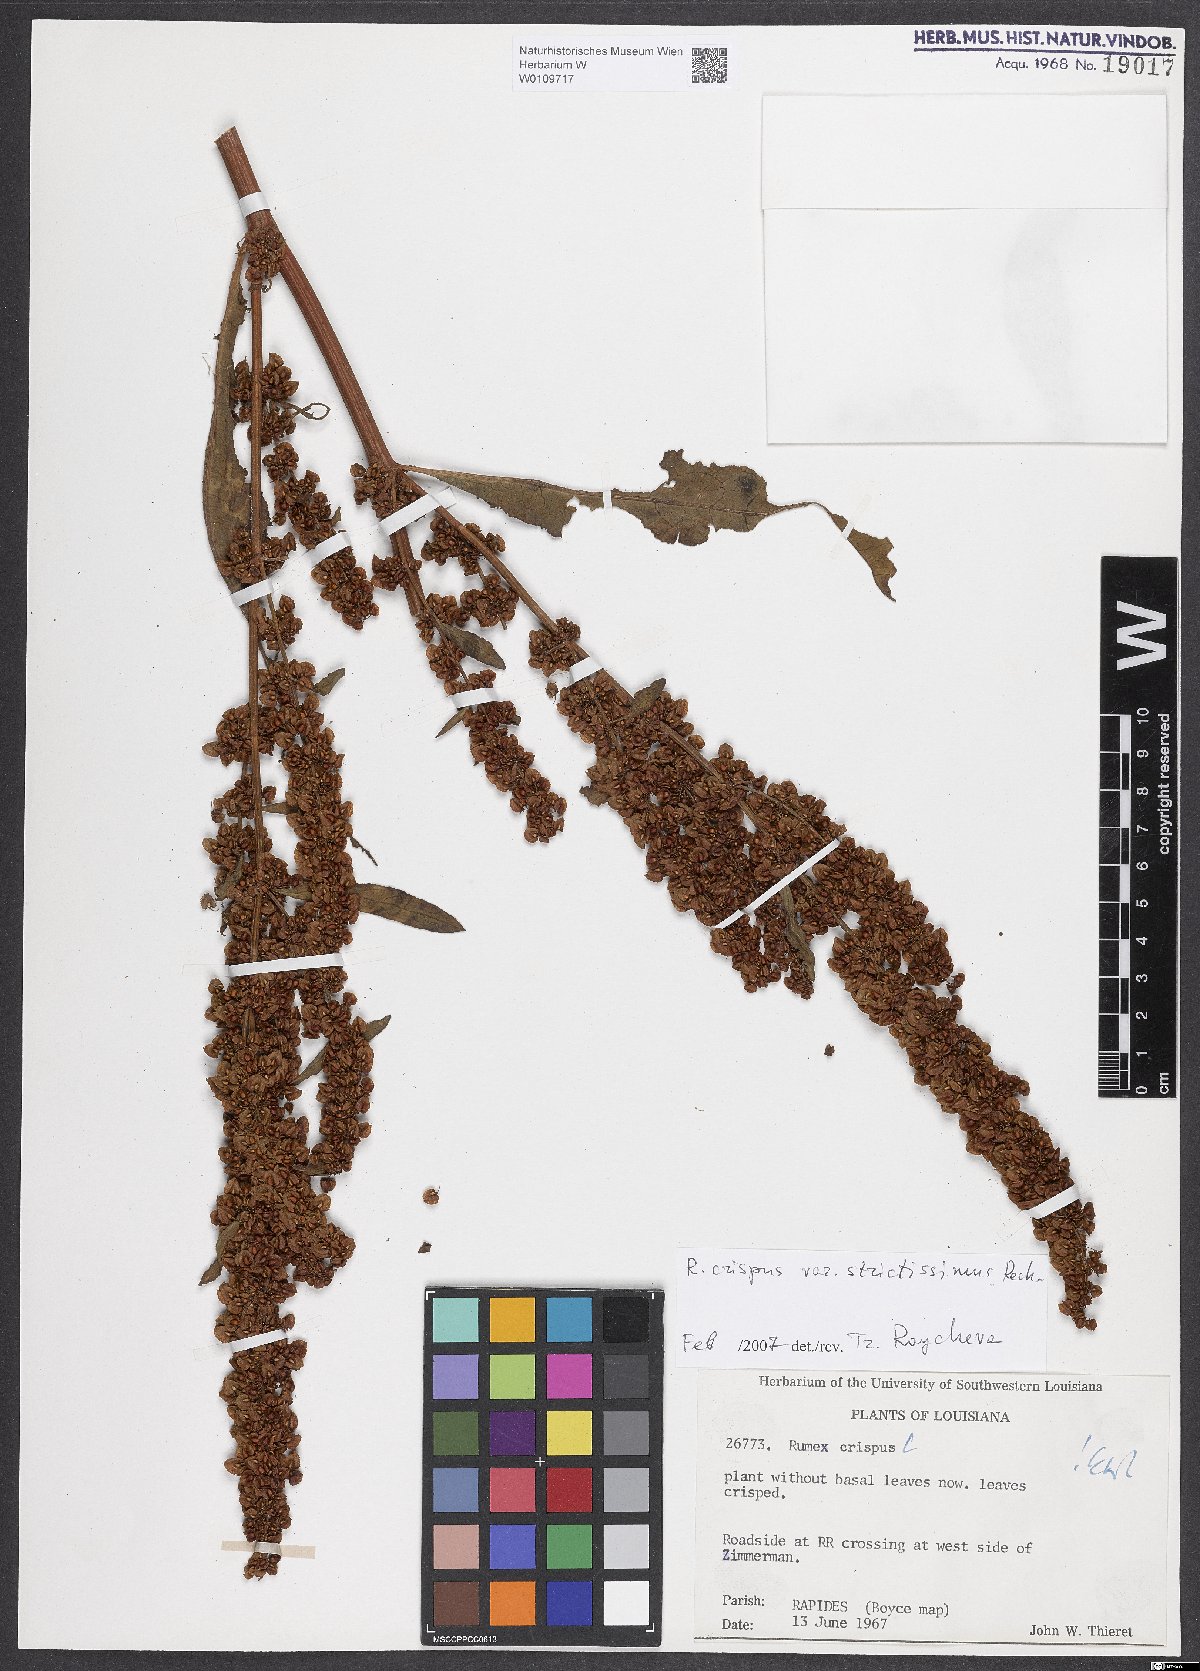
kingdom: Plantae
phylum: Tracheophyta
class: Magnoliopsida
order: Caryophyllales
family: Polygonaceae
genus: Rumex
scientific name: Rumex crispus
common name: Curled dock
